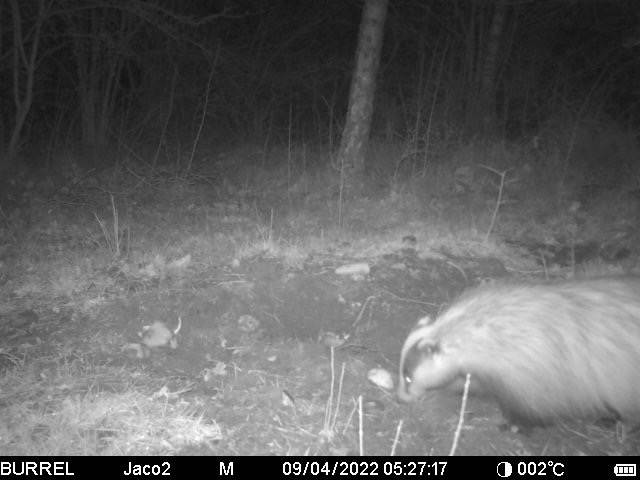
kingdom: Animalia
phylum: Chordata
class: Mammalia
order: Carnivora
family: Mustelidae
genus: Meles
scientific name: Meles meles
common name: Grævling
